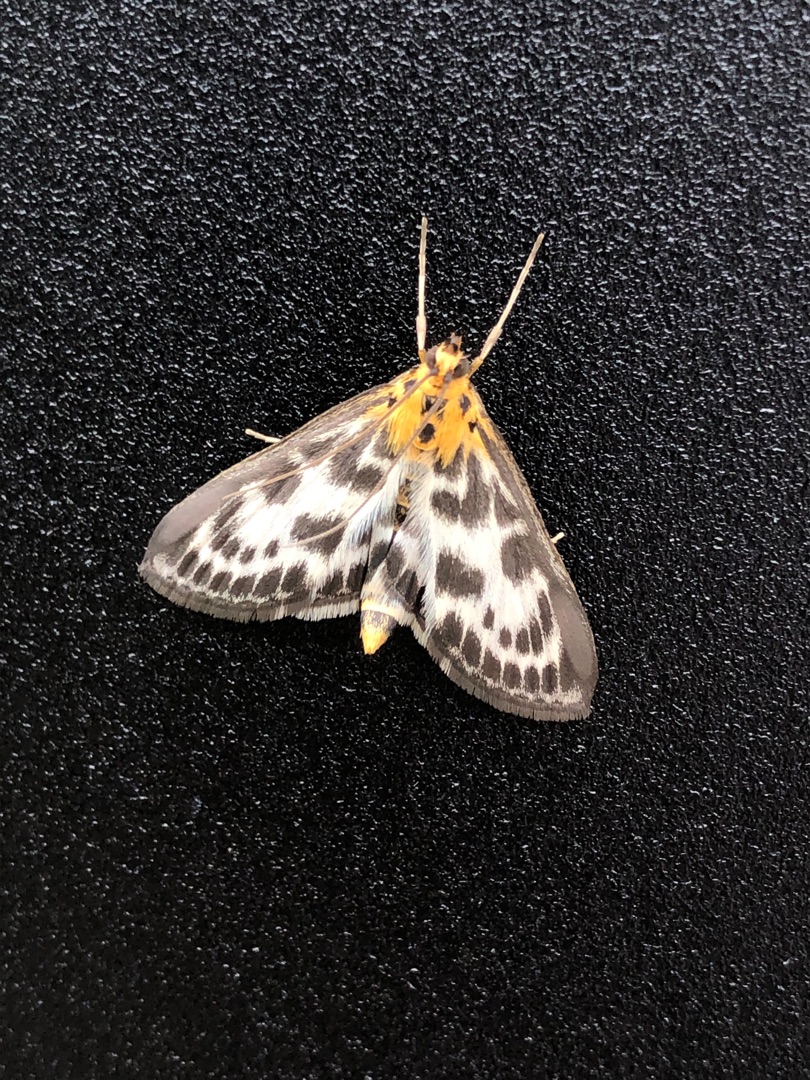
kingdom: Animalia
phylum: Arthropoda
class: Insecta
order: Lepidoptera
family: Crambidae
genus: Anania
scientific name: Anania hortulata
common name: Nældehalvmøl
